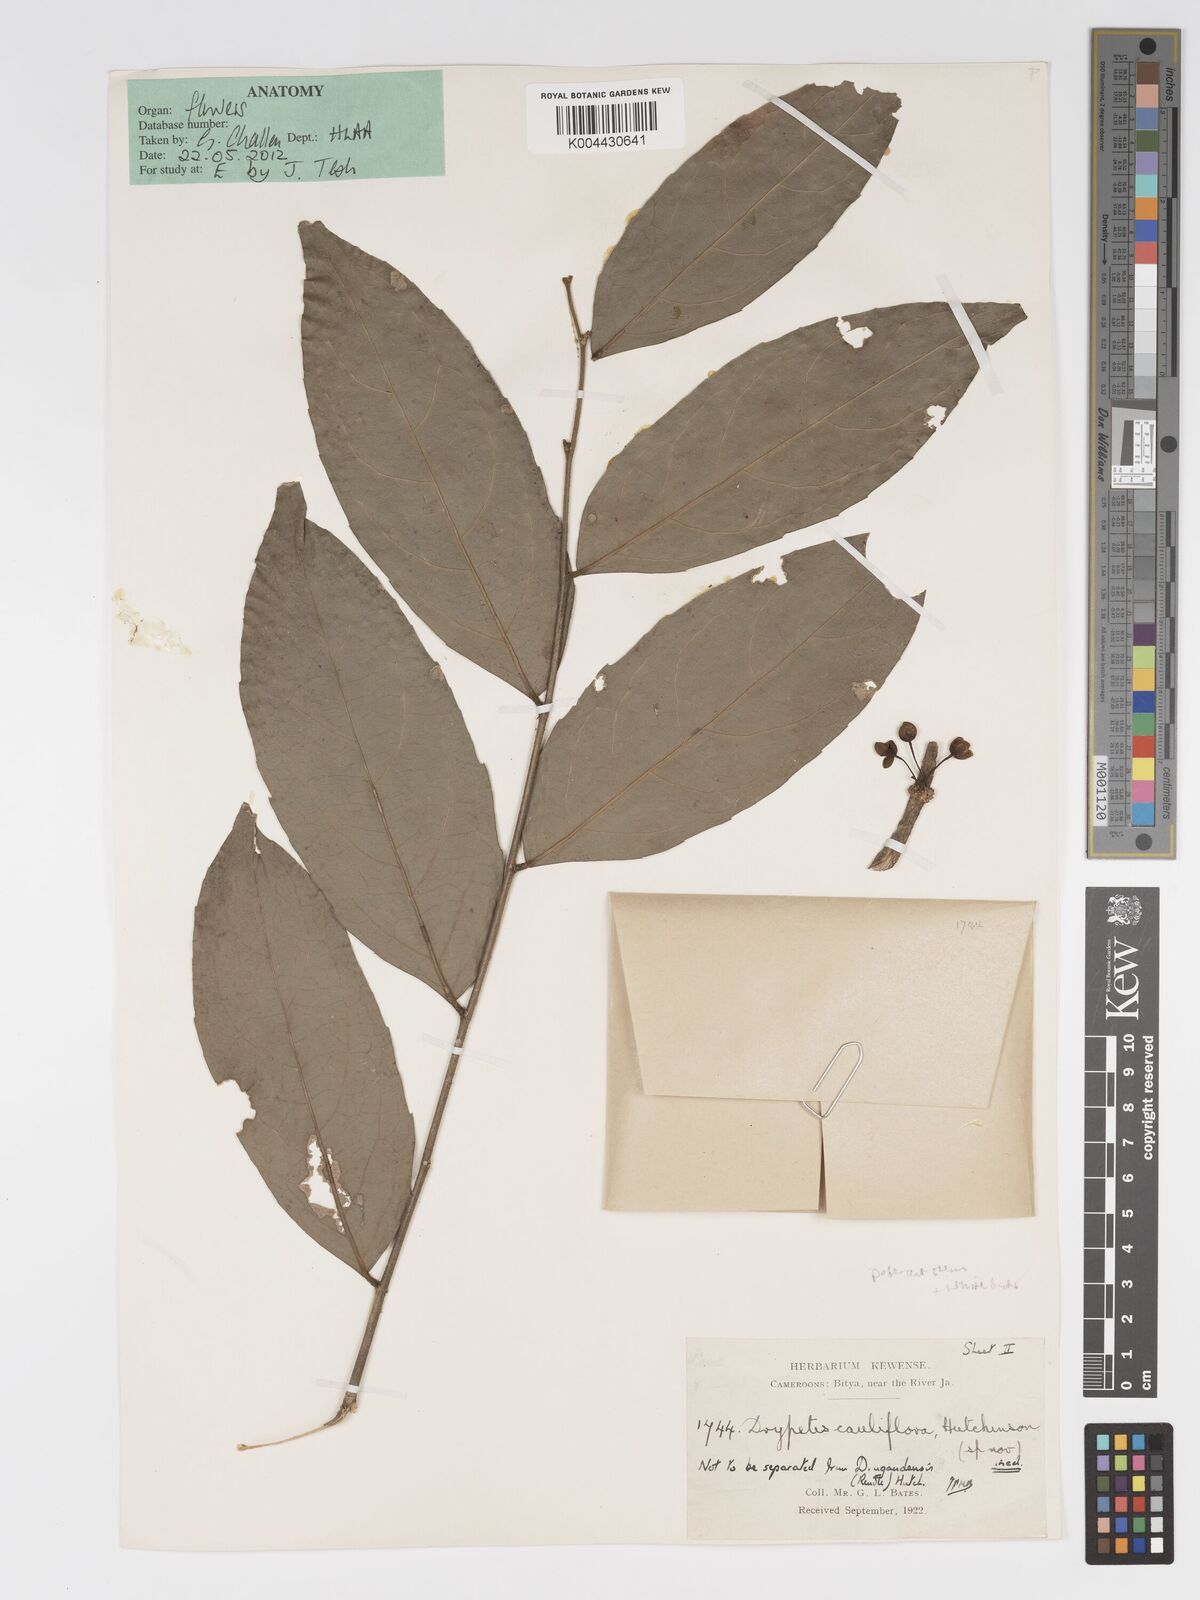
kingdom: Plantae
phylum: Tracheophyta
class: Magnoliopsida
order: Malpighiales
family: Putranjivaceae
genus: Drypetes
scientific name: Drypetes ugandensis
